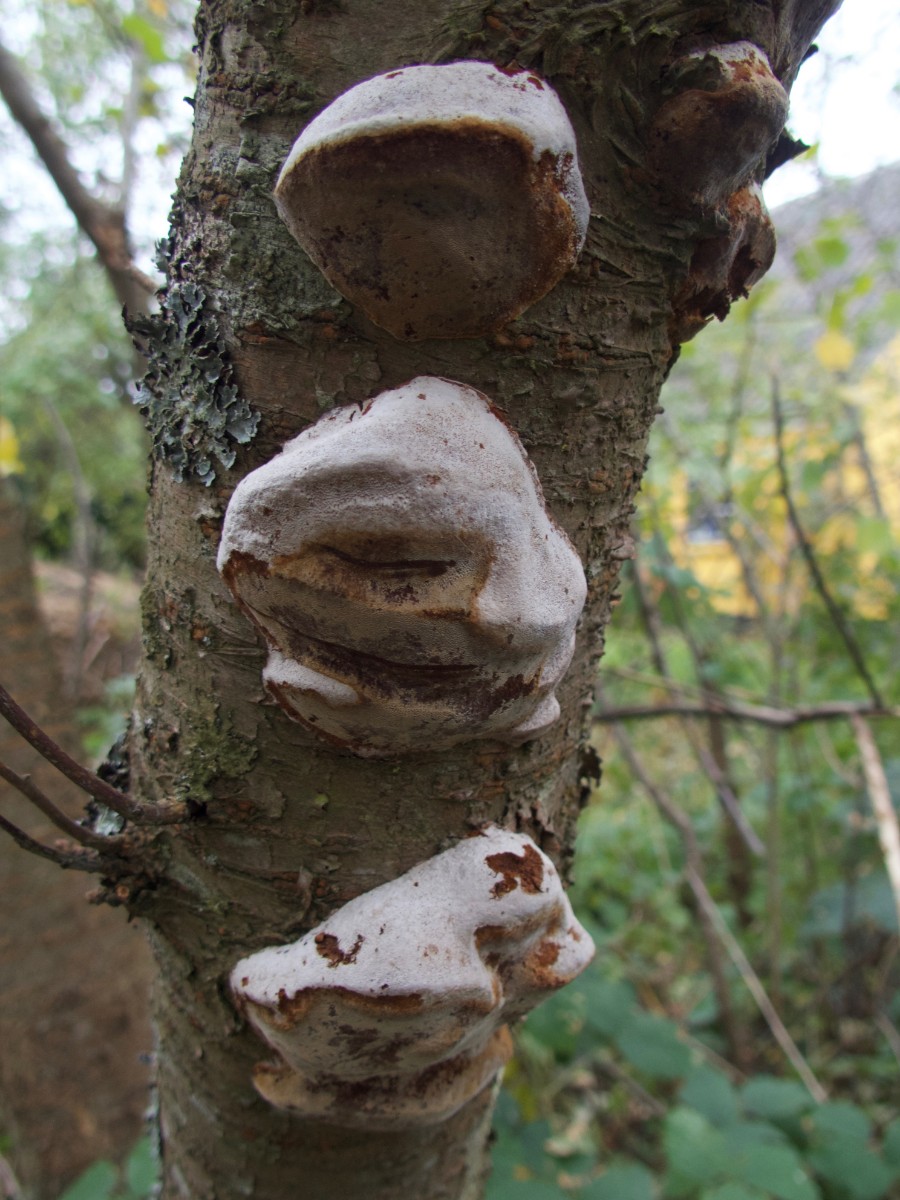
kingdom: Fungi
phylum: Basidiomycota
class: Agaricomycetes
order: Hymenochaetales
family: Hymenochaetaceae
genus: Phellinus
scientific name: Phellinus pomaceus
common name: blomme-ildporesvamp
